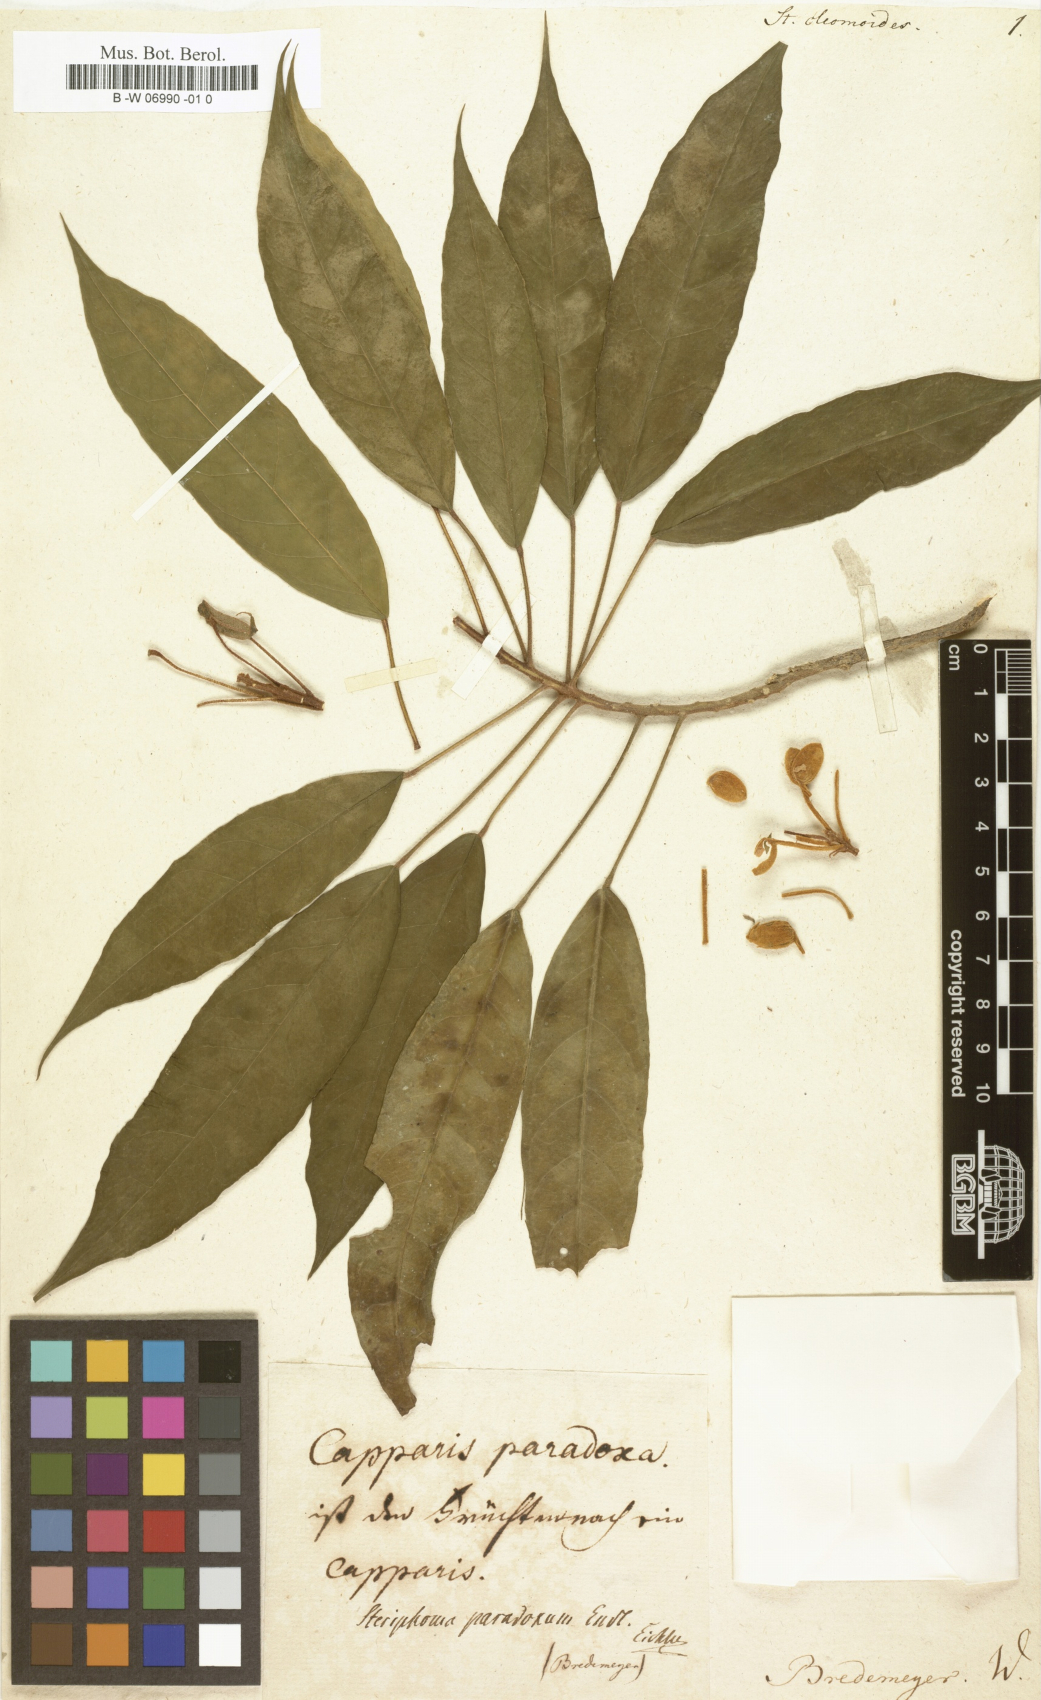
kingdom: Plantae
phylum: Tracheophyta
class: Magnoliopsida
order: Brassicales
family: Capparaceae
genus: Steriphoma
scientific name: Steriphoma paradoxum
